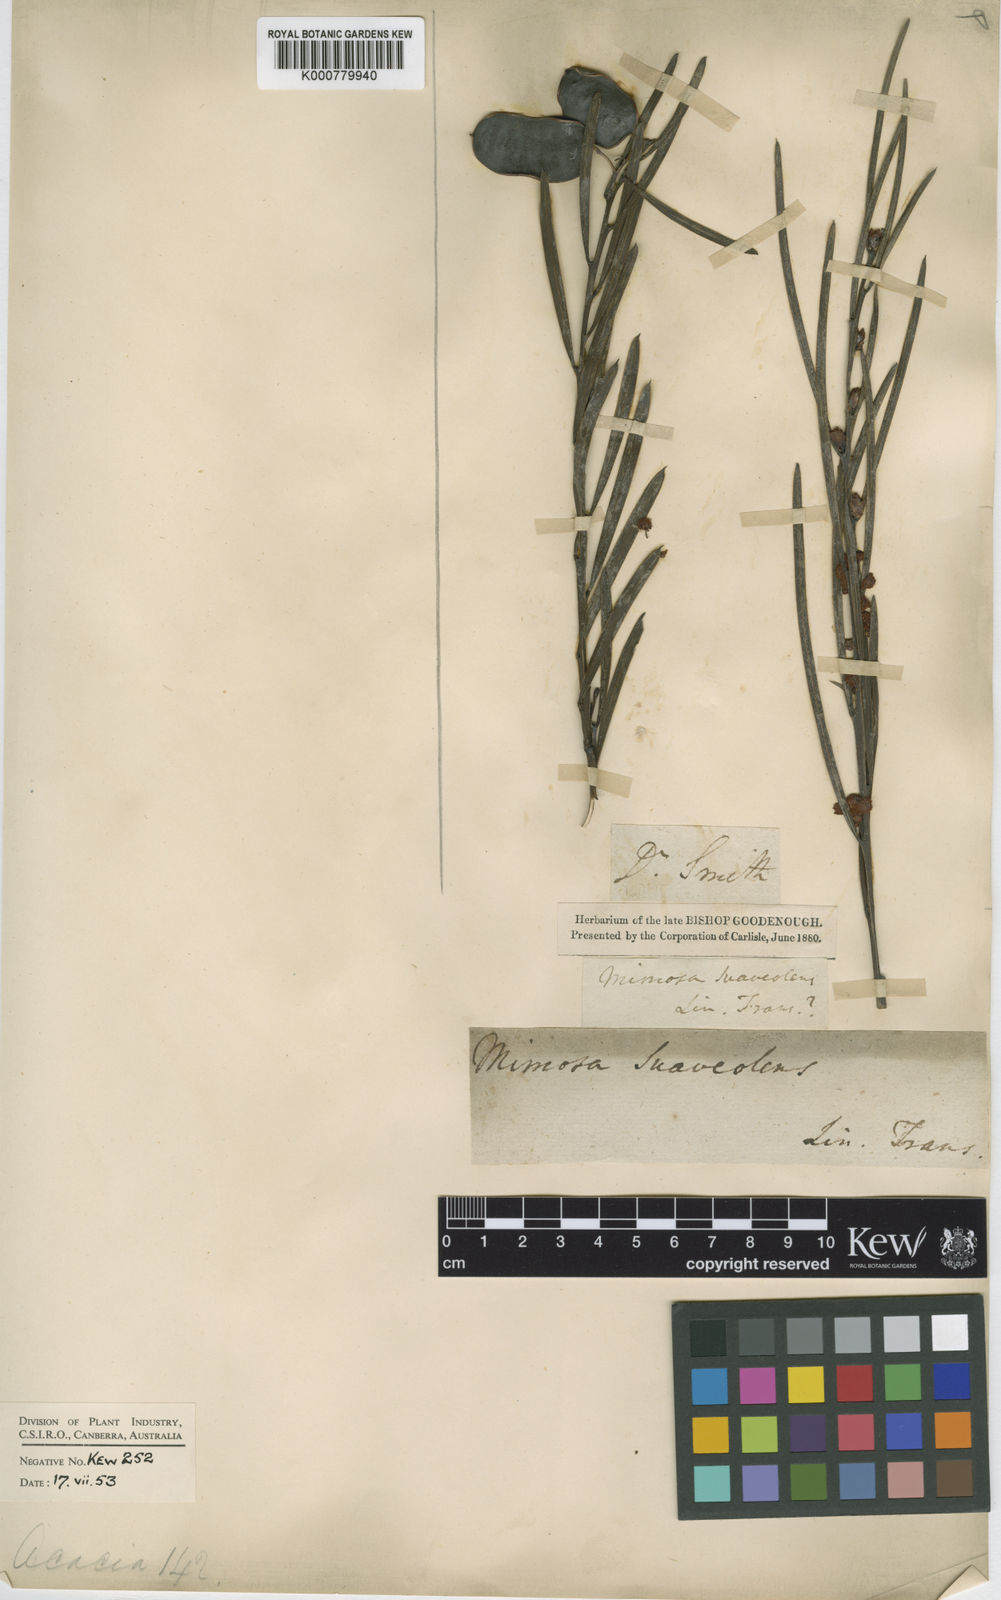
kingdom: Plantae
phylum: Tracheophyta
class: Magnoliopsida
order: Fabales
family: Fabaceae
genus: Acacia
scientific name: Acacia suaveolens
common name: Sweet acacia
